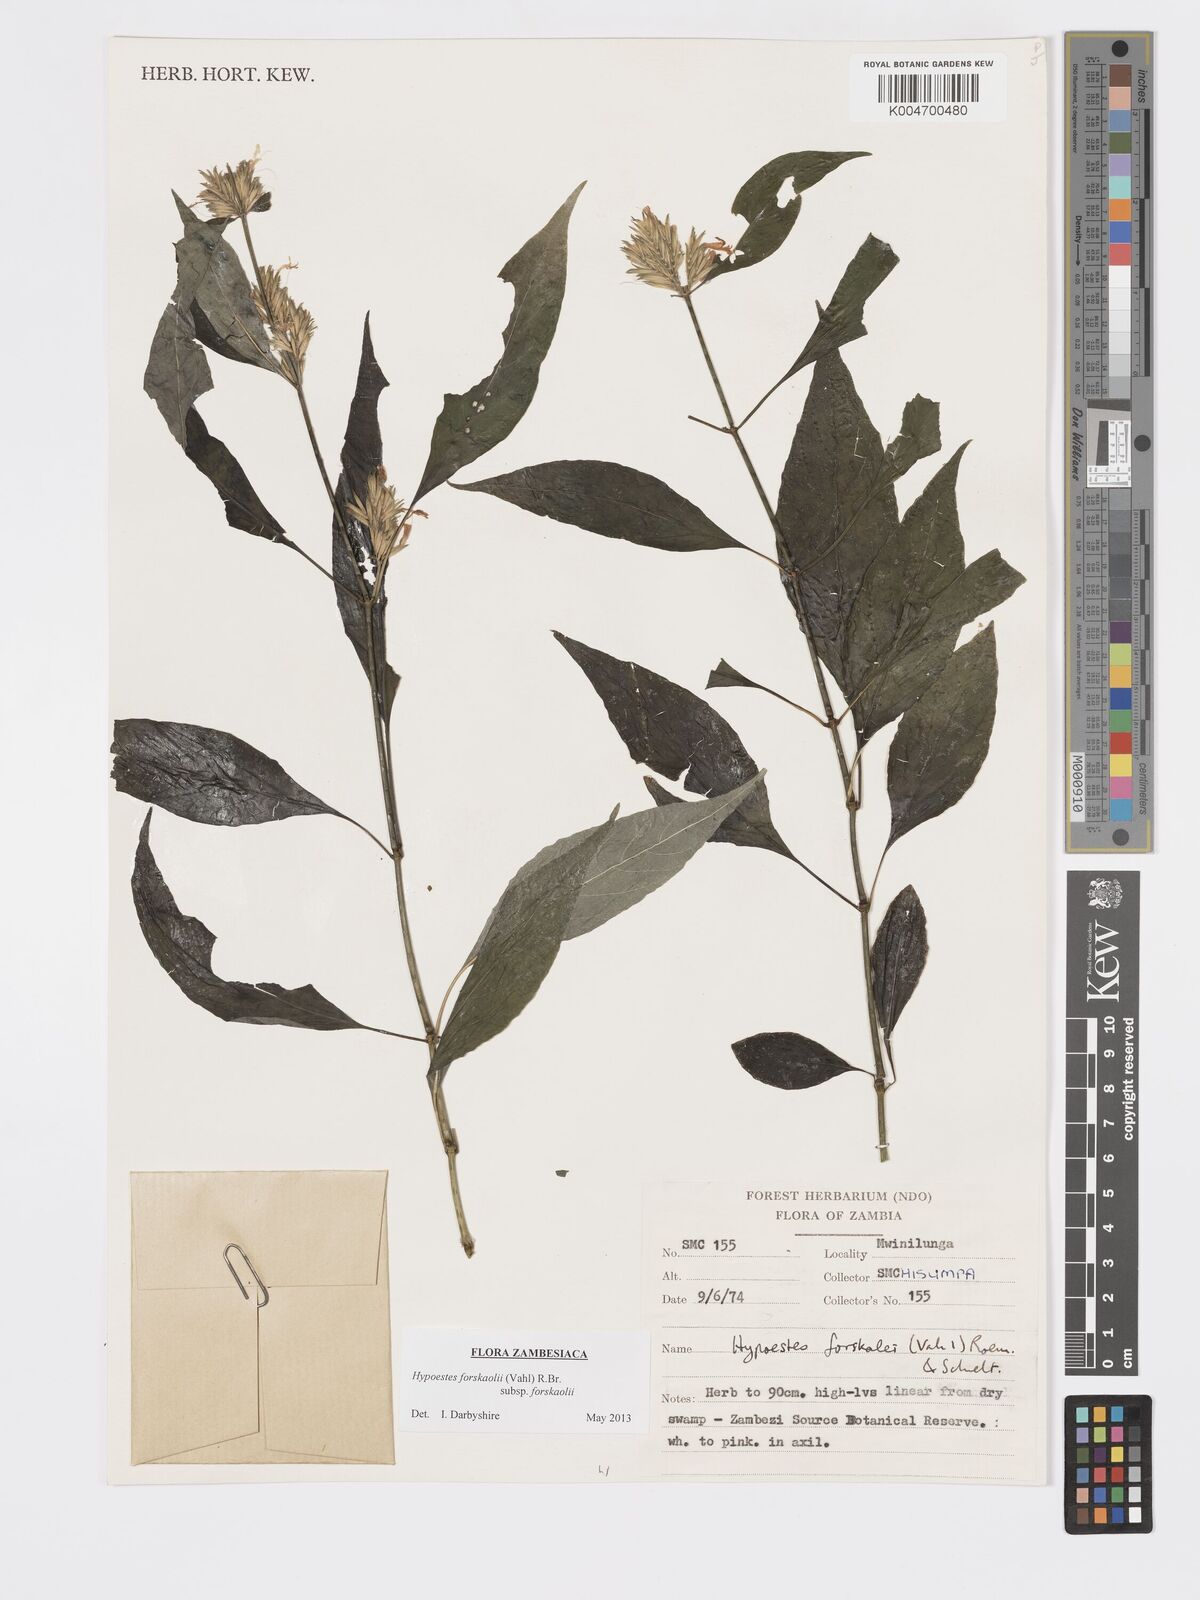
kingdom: Plantae
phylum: Tracheophyta
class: Magnoliopsida
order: Lamiales
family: Acanthaceae
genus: Hypoestes
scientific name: Hypoestes forskaolii
